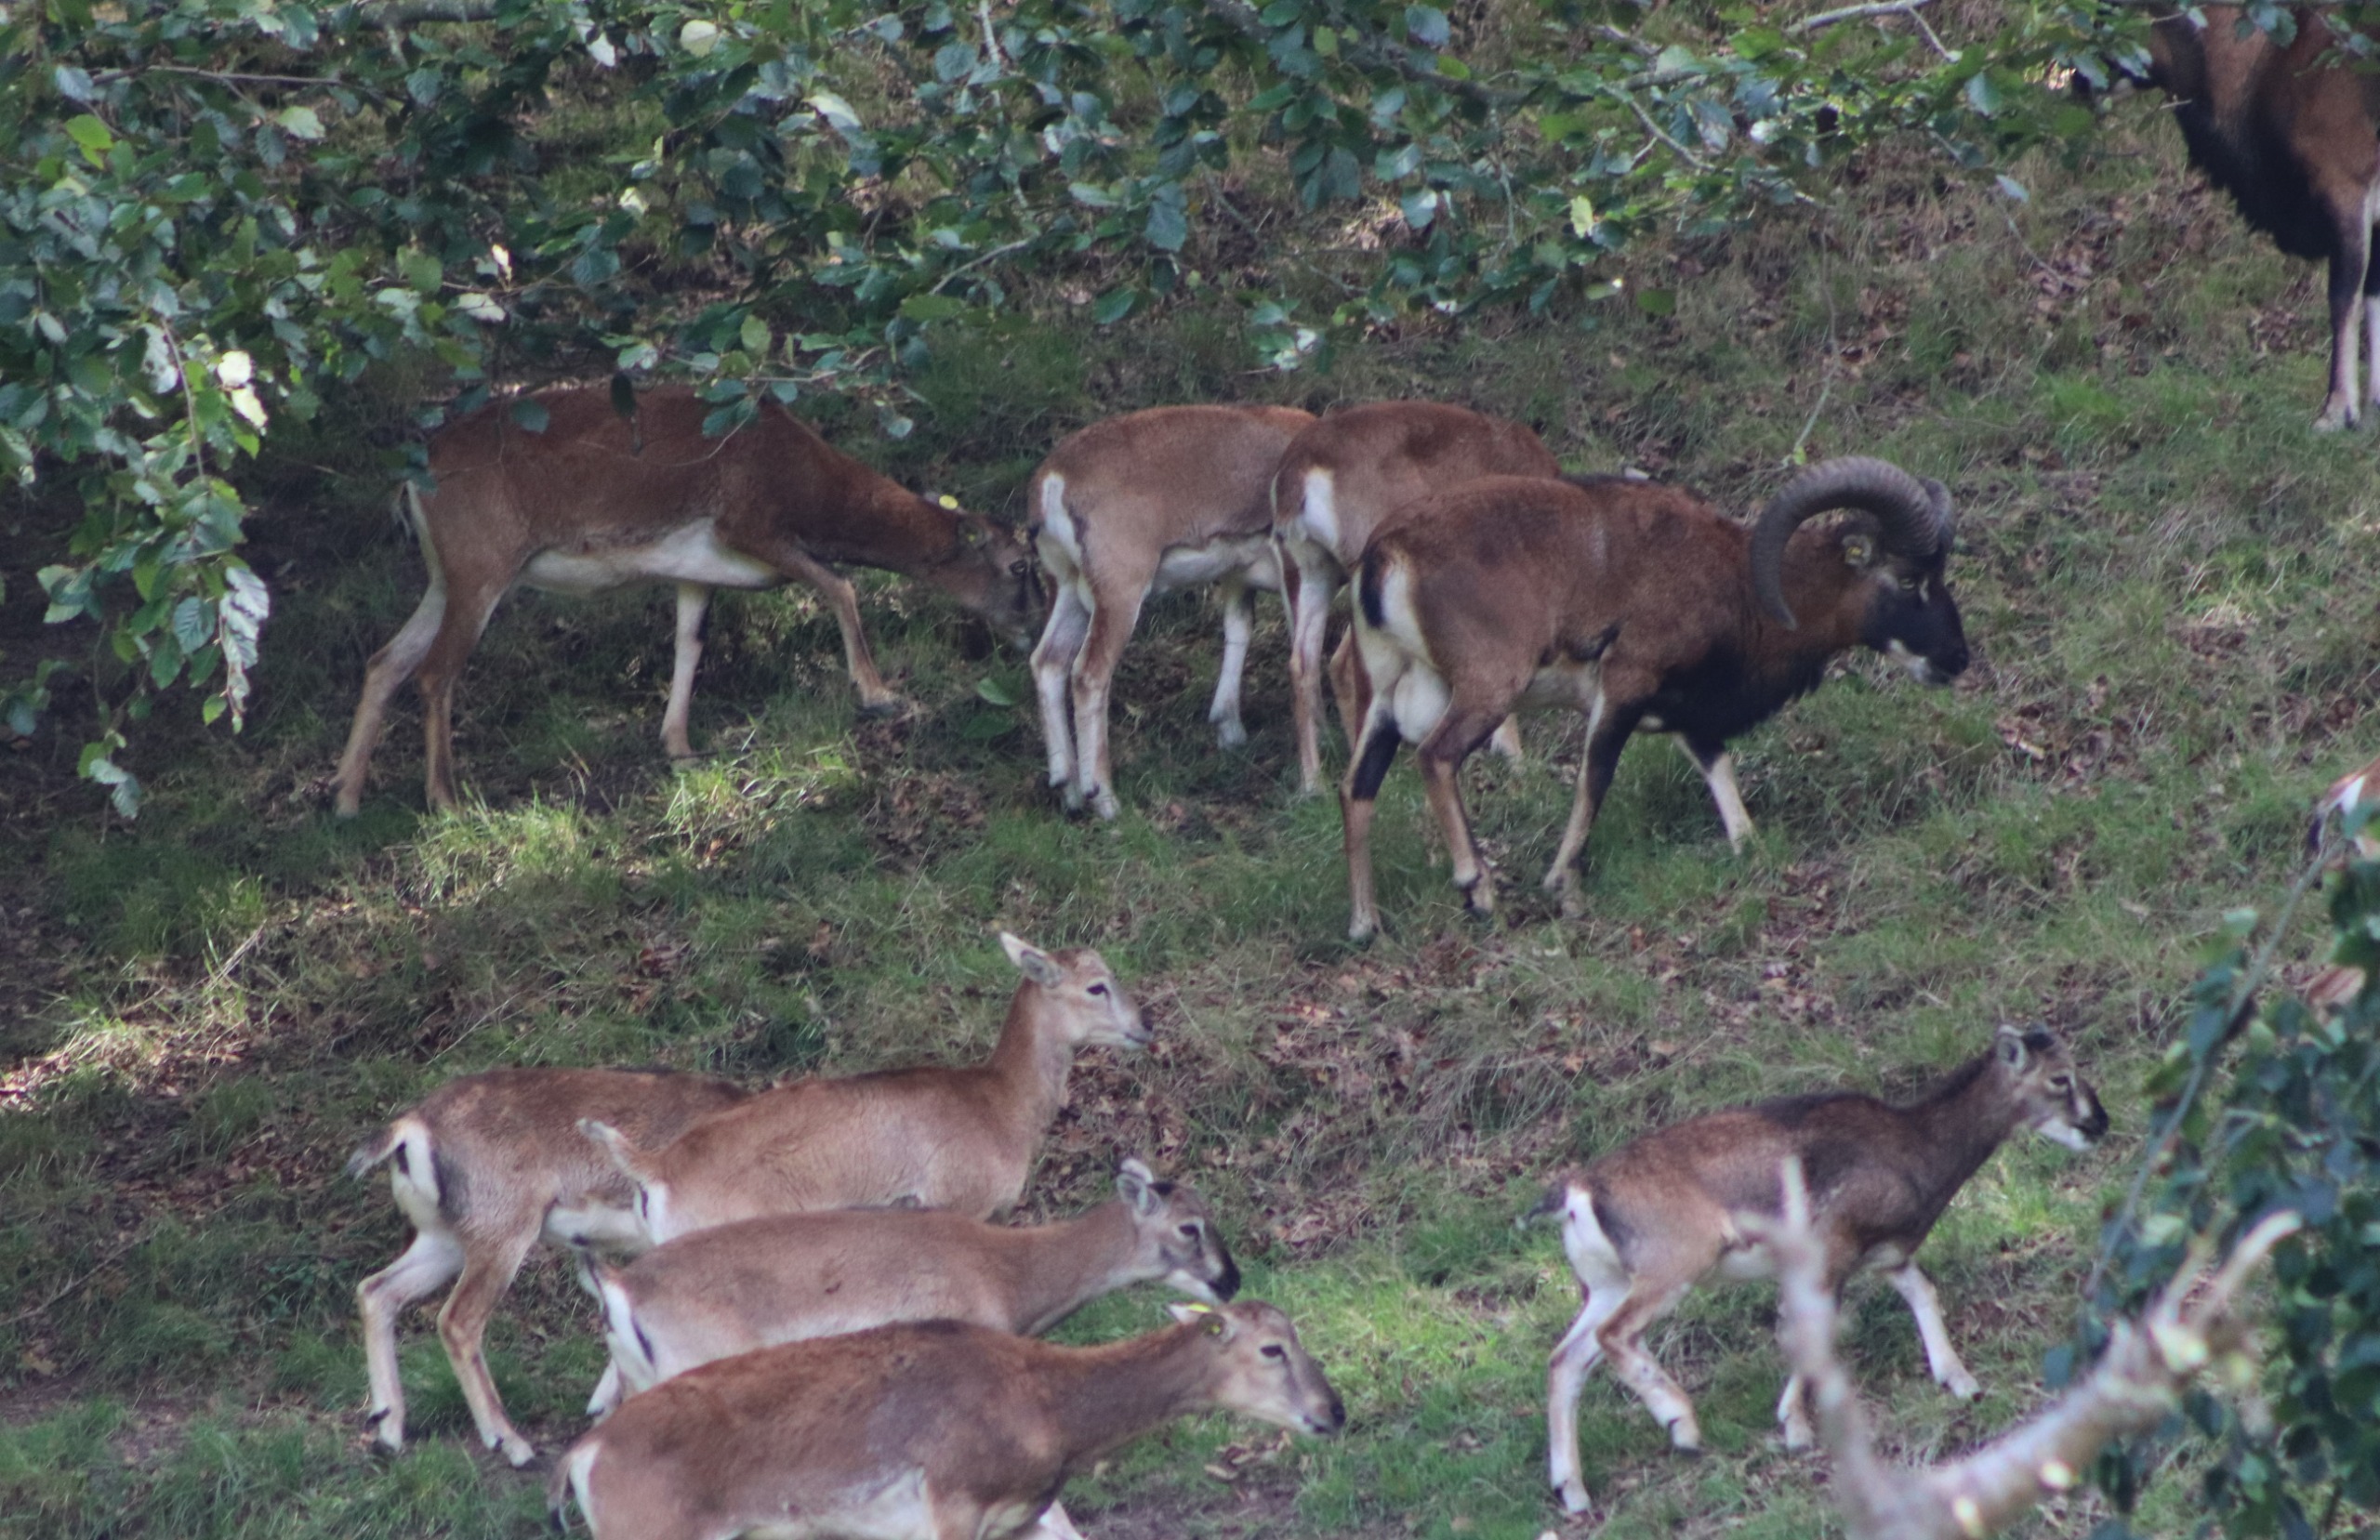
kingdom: Animalia
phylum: Chordata
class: Mammalia
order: Artiodactyla
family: Bovidae
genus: Ovis
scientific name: Ovis aries
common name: Muflon
